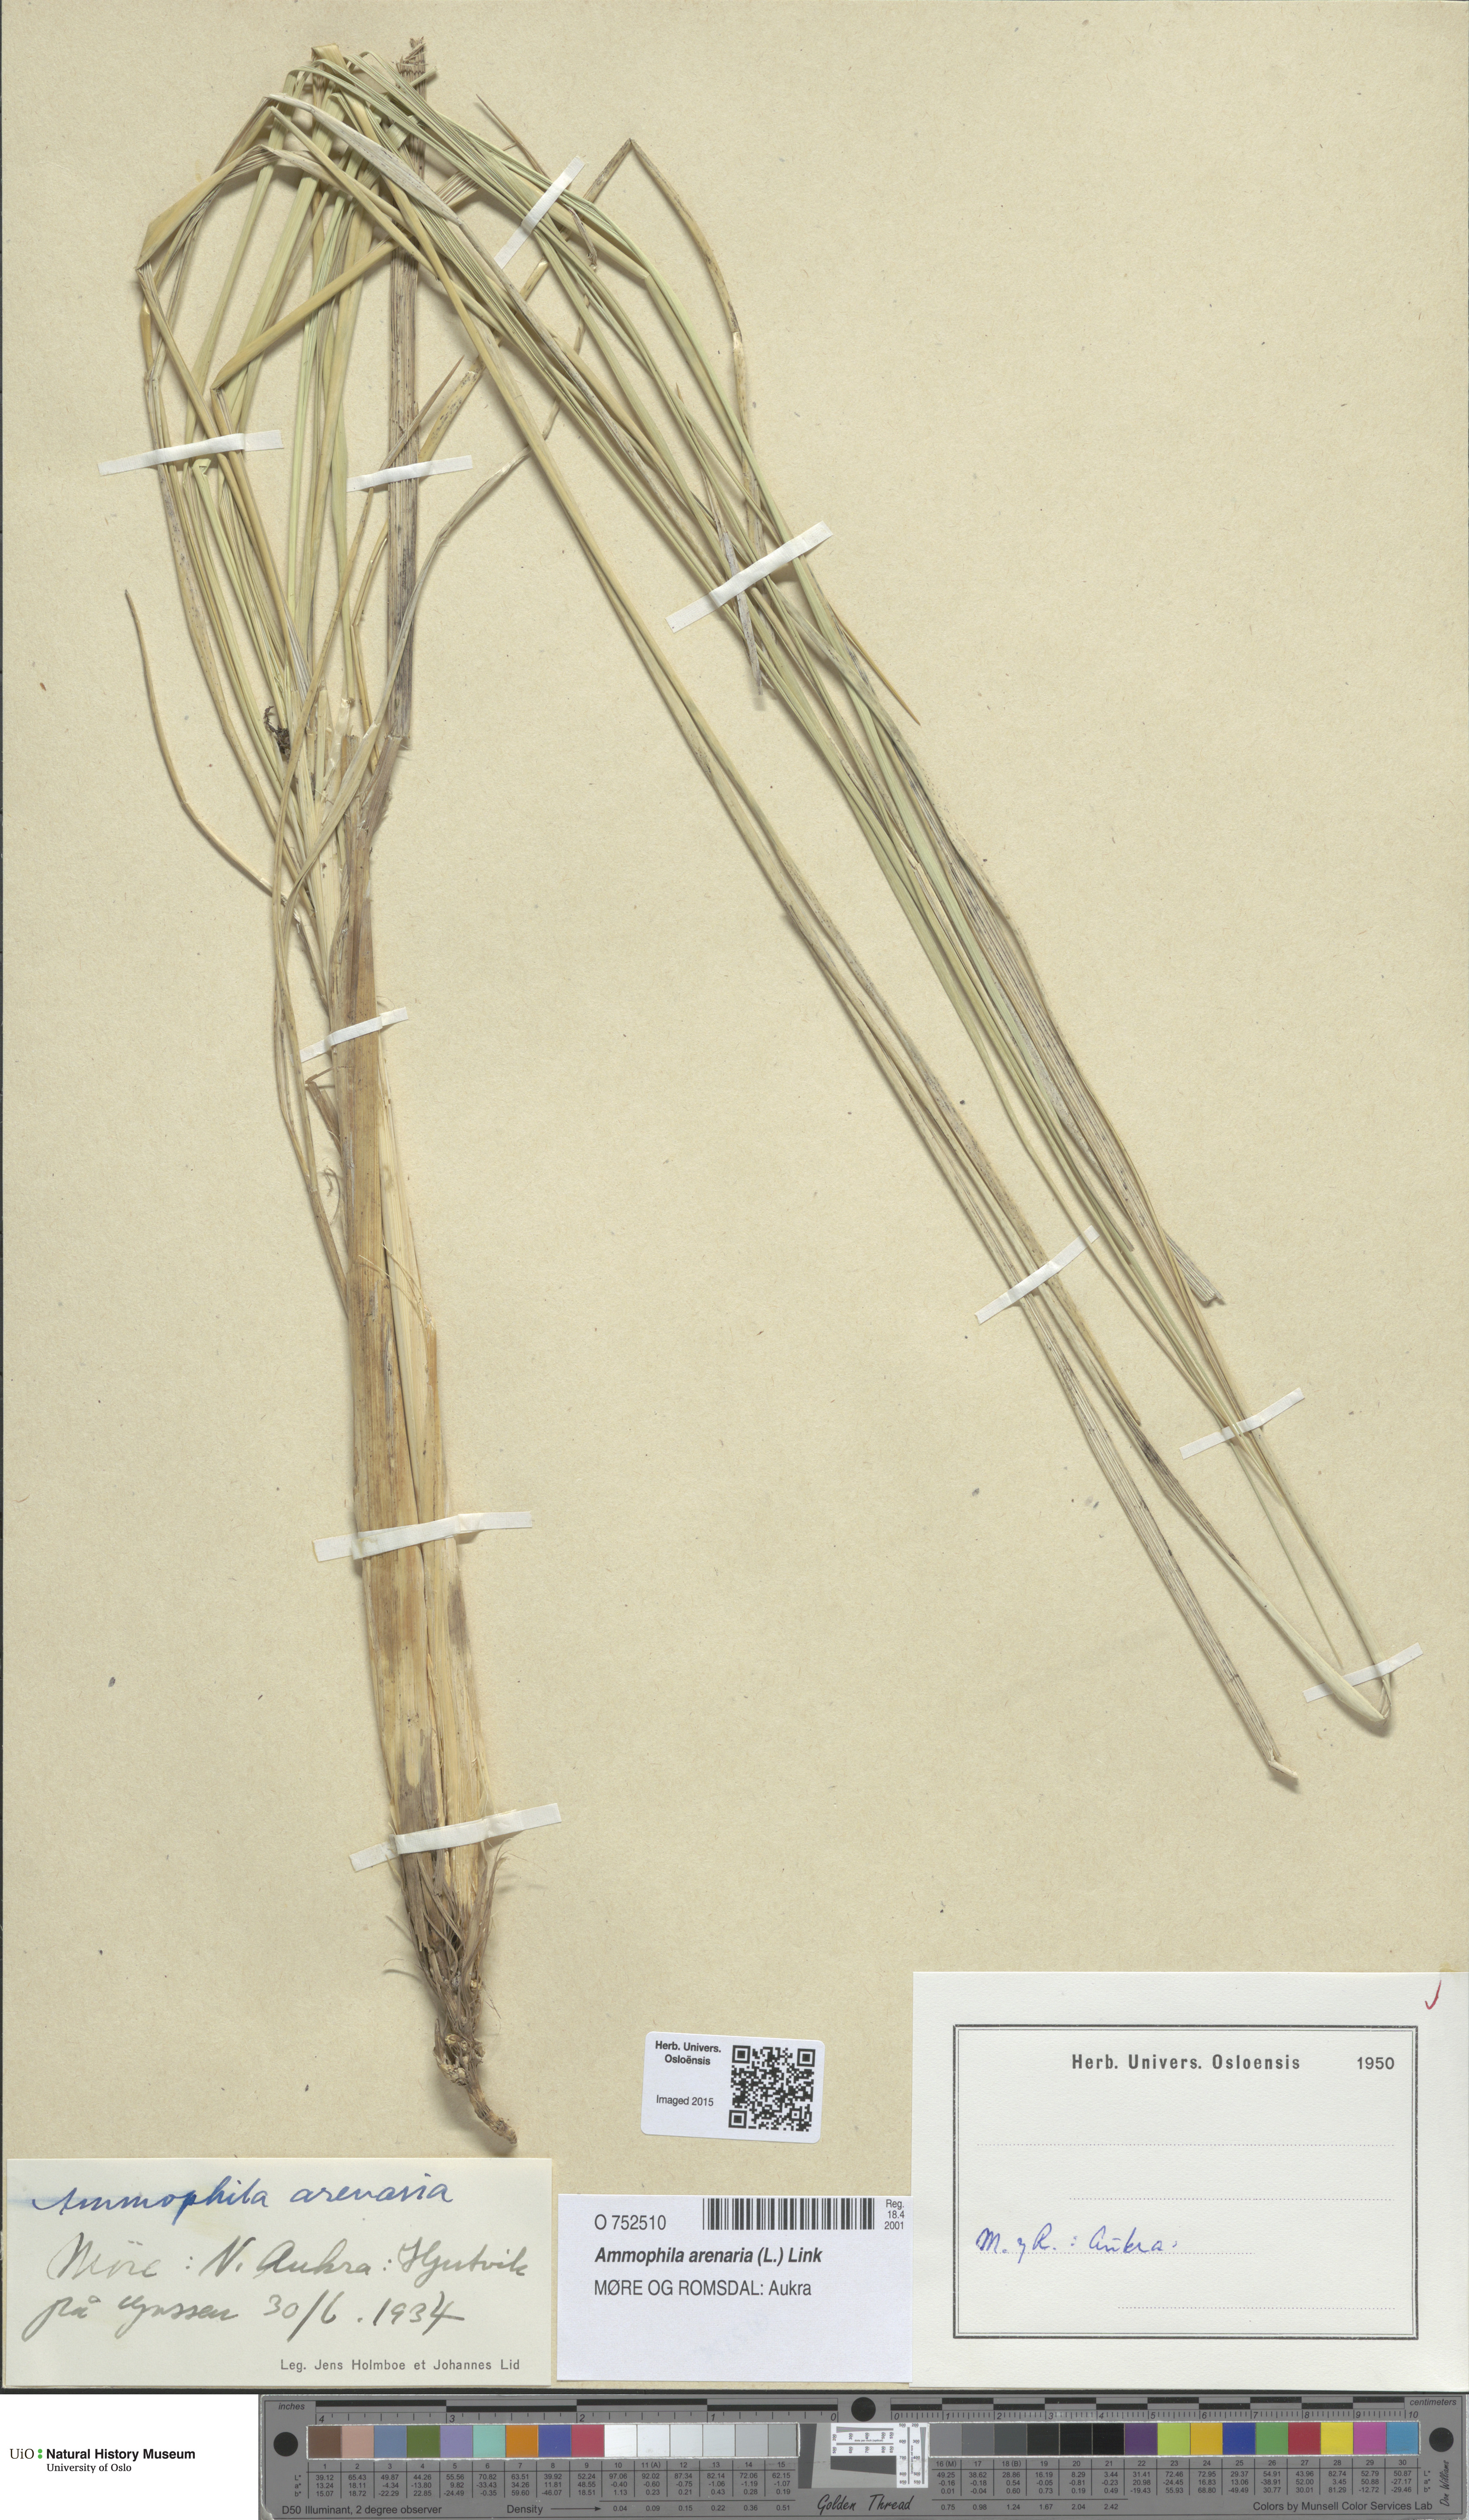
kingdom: Plantae
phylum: Tracheophyta
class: Liliopsida
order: Poales
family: Poaceae
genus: Calamagrostis
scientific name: Calamagrostis arenaria
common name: European beachgrass
